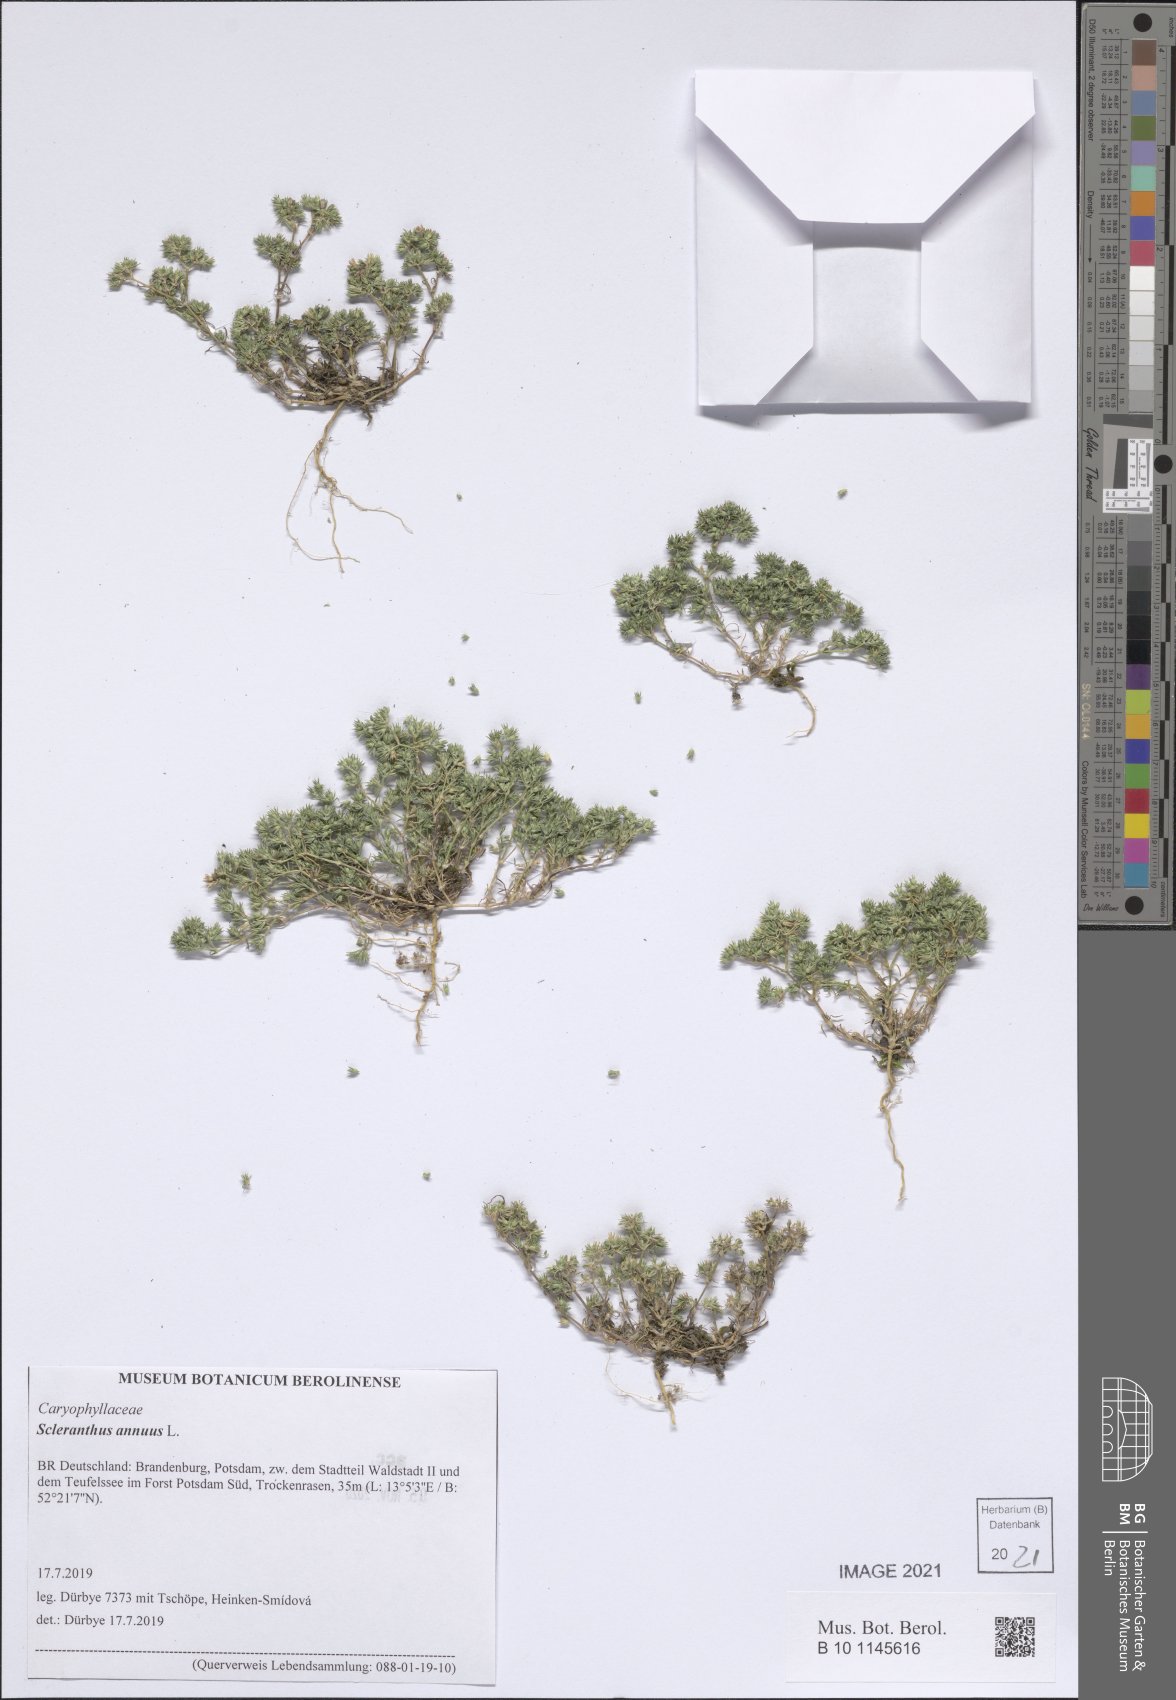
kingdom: Plantae
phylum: Tracheophyta
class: Magnoliopsida
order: Caryophyllales
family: Caryophyllaceae
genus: Scleranthus
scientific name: Scleranthus annuus
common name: Annual knawel
